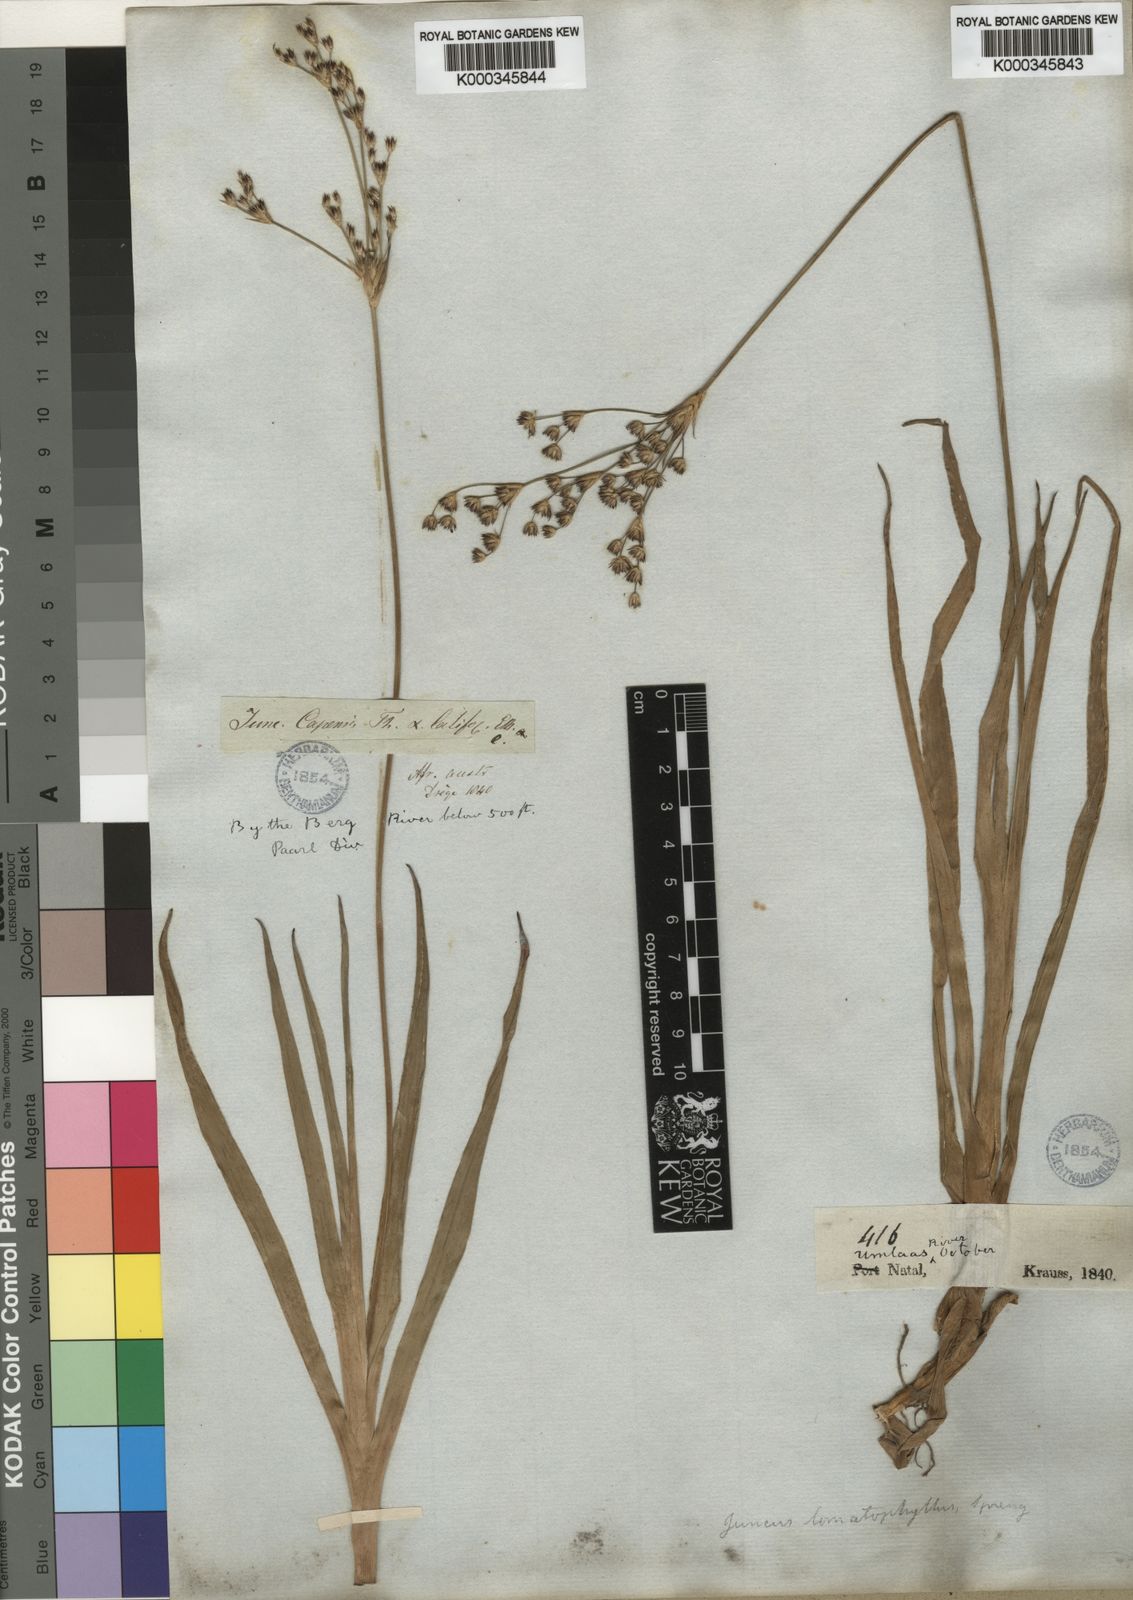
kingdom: Plantae
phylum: Tracheophyta
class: Liliopsida
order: Poales
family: Juncaceae
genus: Juncus
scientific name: Juncus lomatophyllus
